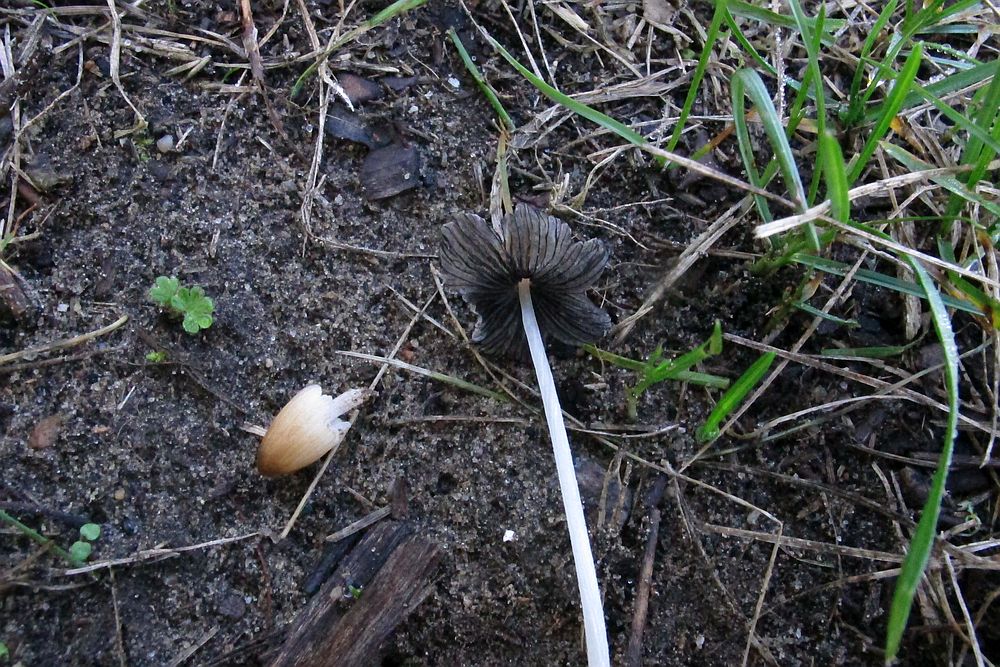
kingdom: Fungi
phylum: Basidiomycota
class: Agaricomycetes
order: Agaricales
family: Psathyrellaceae
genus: Tulosesus
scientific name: Tulosesus sclerocystidiosus
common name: brunhåret blækhat
